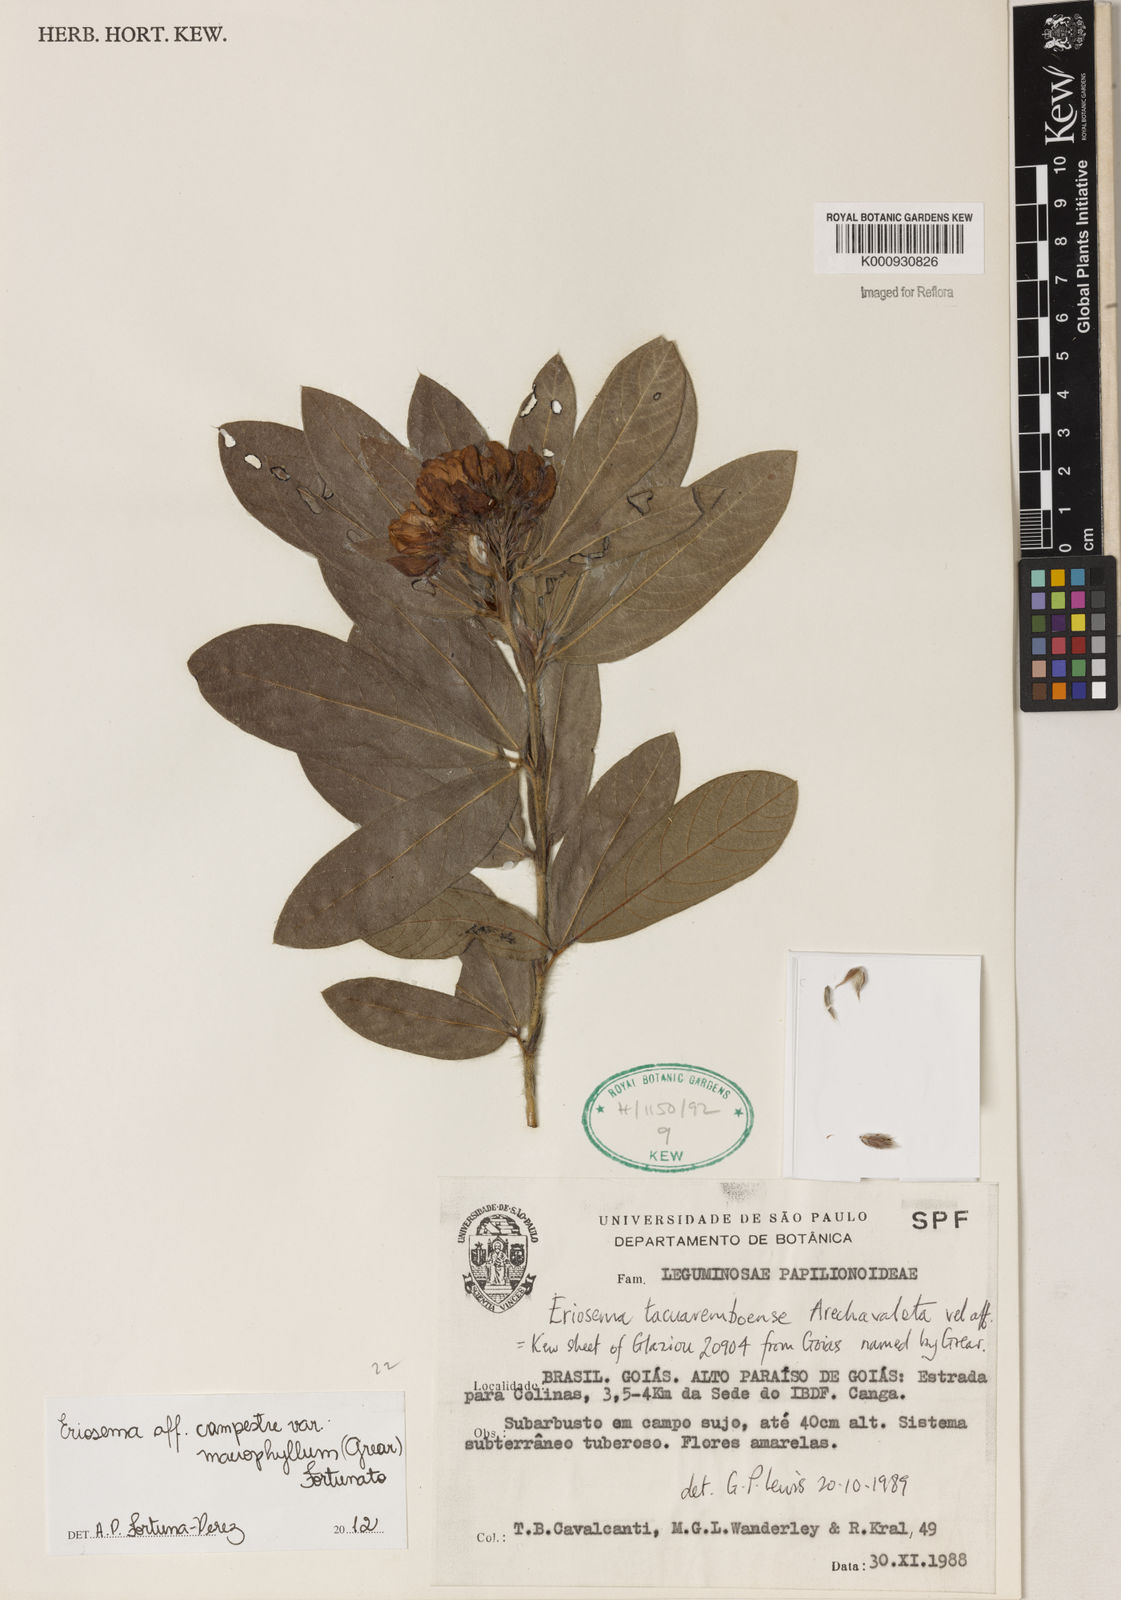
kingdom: Plantae
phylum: Tracheophyta
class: Magnoliopsida
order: Fabales
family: Fabaceae
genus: Eriosema
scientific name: Eriosema campestre
